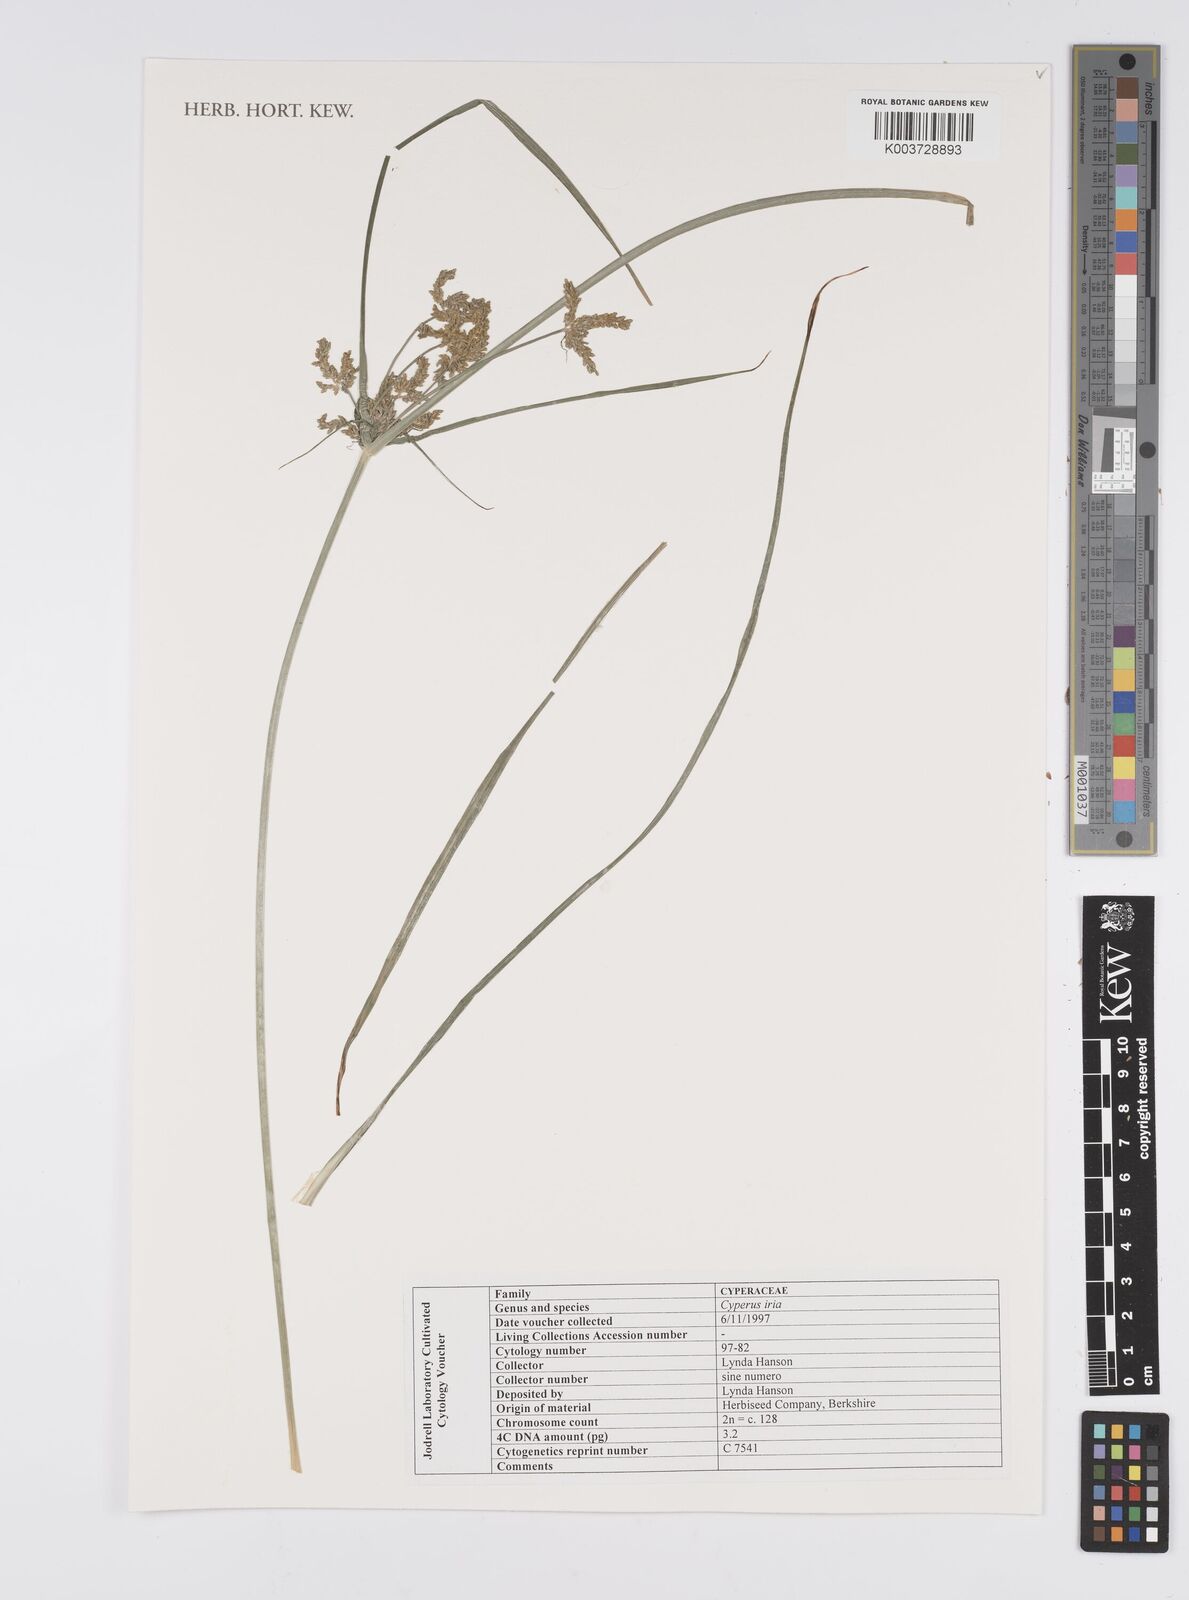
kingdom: Plantae
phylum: Tracheophyta
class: Liliopsida
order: Poales
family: Cyperaceae
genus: Cyperus
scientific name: Cyperus iria
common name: Ricefield flatsedge
